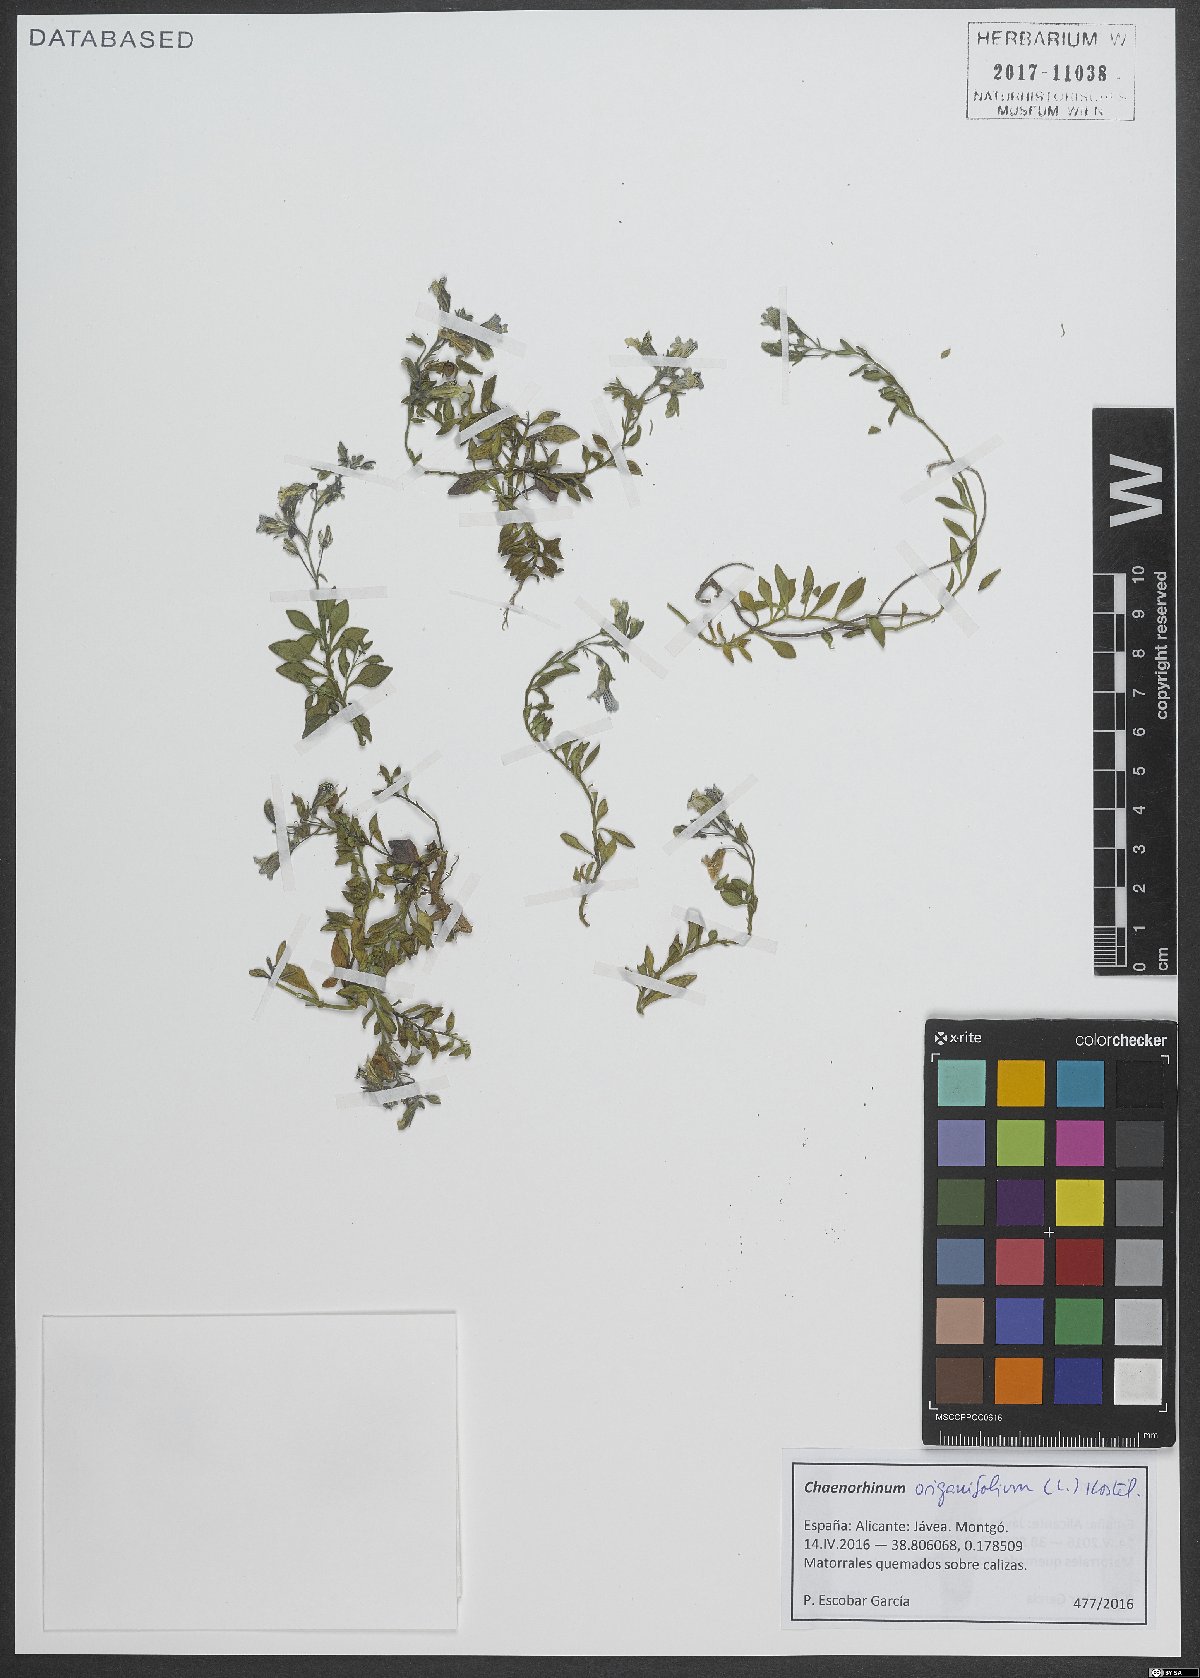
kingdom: Plantae
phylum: Tracheophyta
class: Magnoliopsida
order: Lamiales
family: Plantaginaceae
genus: Chaenorhinum
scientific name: Chaenorhinum origanifolium
